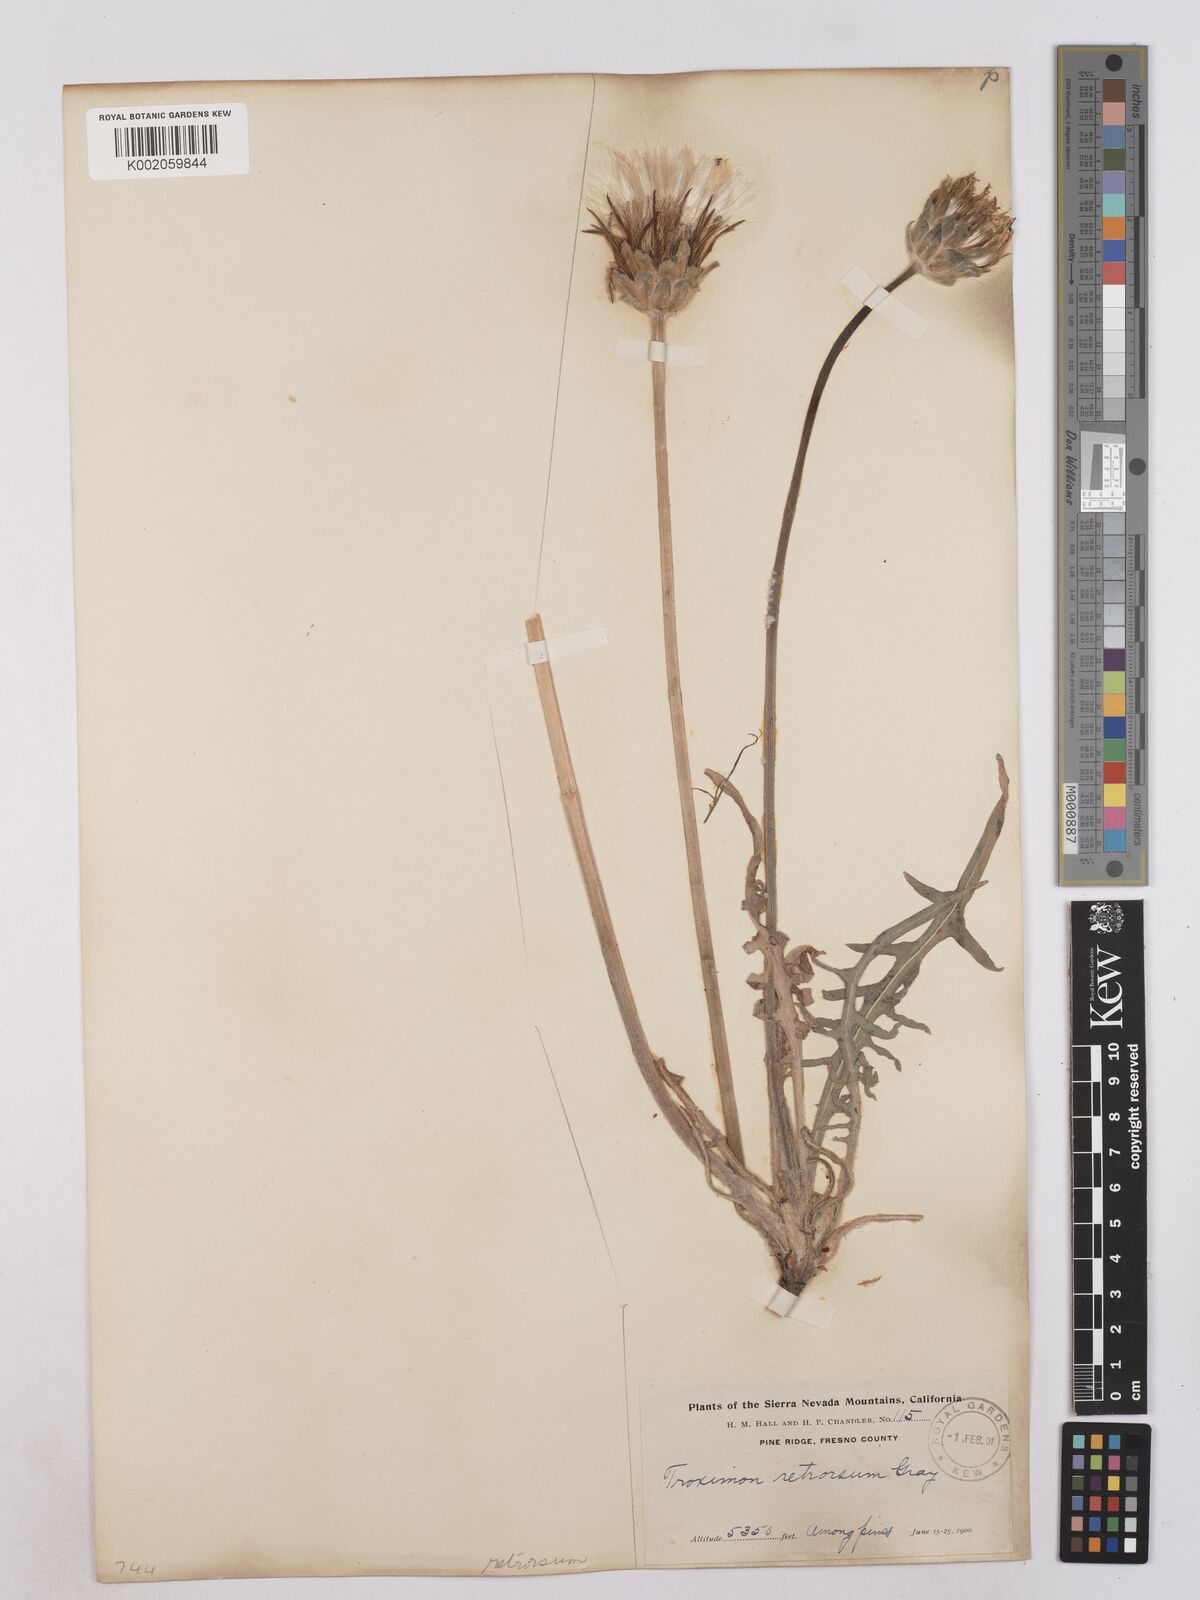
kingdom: Plantae
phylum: Tracheophyta
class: Magnoliopsida
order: Asterales
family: Asteraceae
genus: Agoseris
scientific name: Agoseris retrorsa
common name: Spearleaf agoseris
